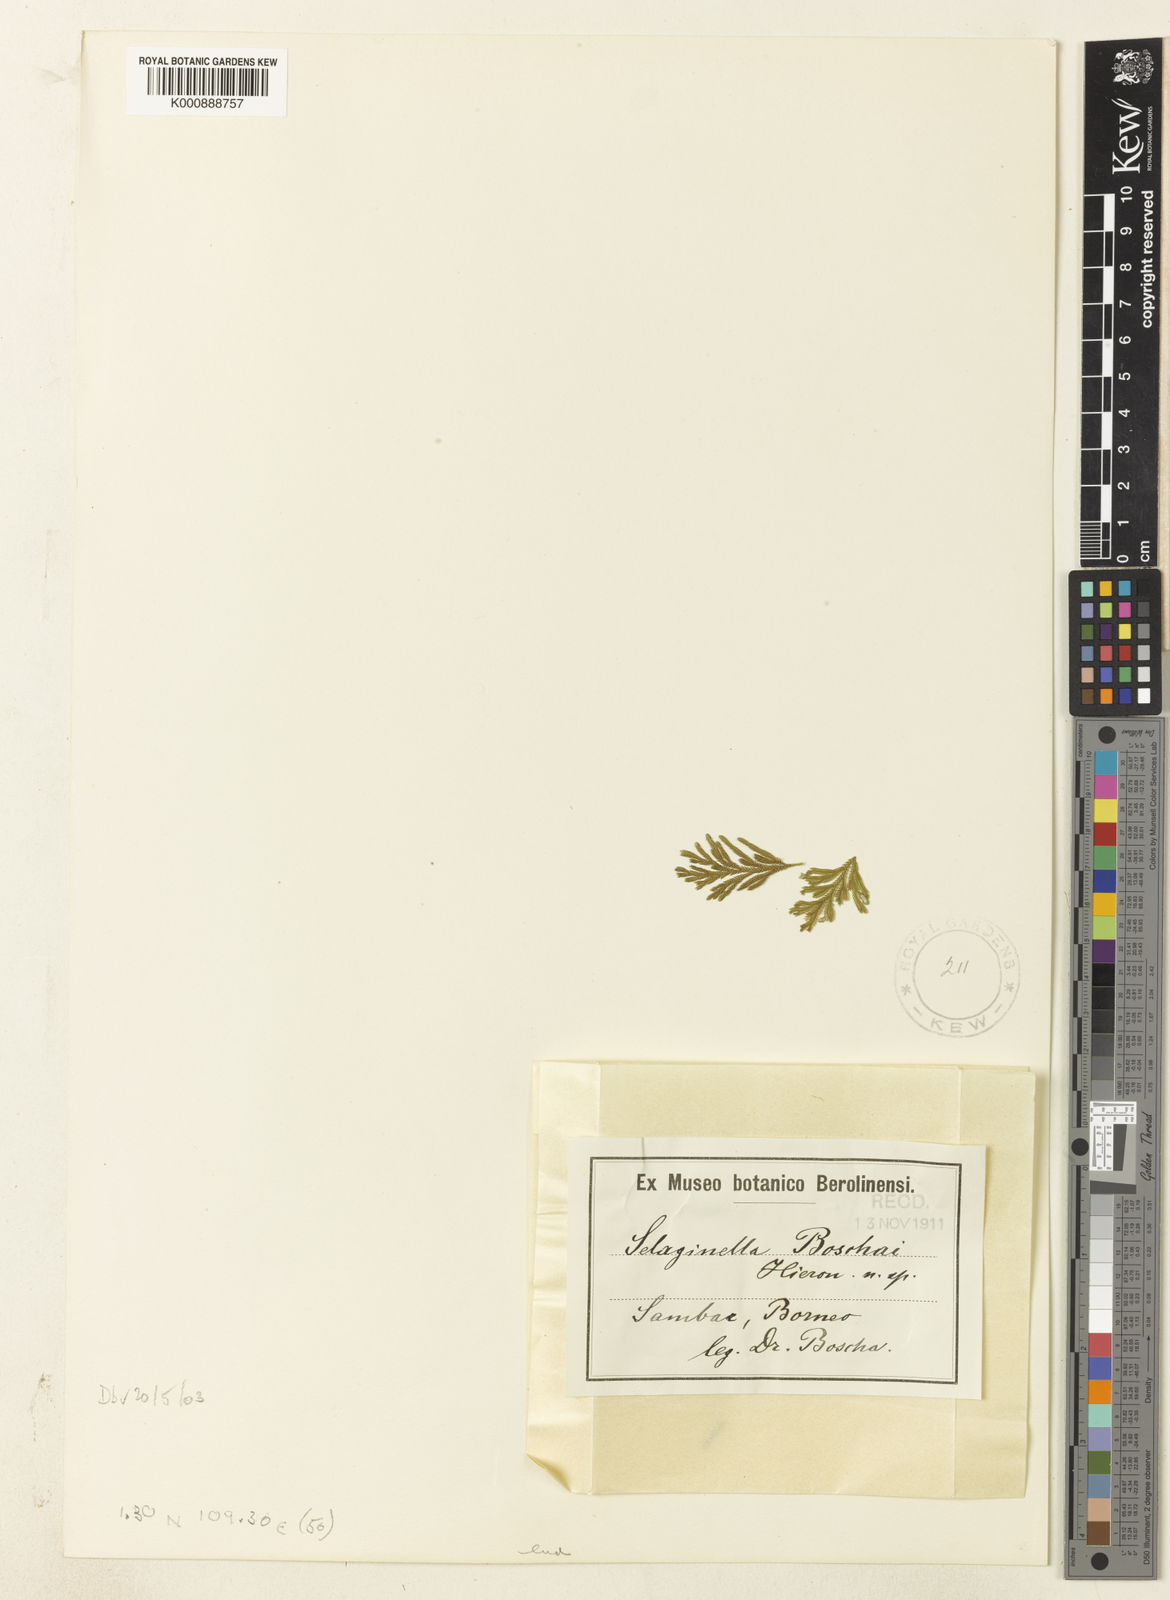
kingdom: Plantae
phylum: Tracheophyta
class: Lycopodiopsida
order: Selaginellales
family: Selaginellaceae
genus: Selaginella
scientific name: Selaginella
